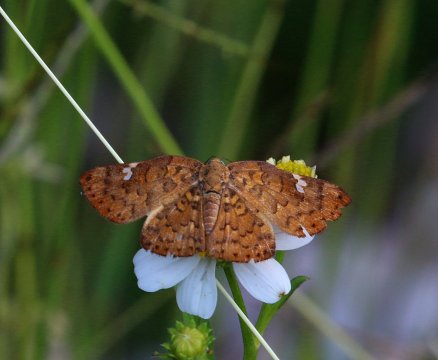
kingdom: Animalia
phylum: Arthropoda
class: Insecta
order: Lepidoptera
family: Riodinidae
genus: Curvie
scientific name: Curvie emesia
